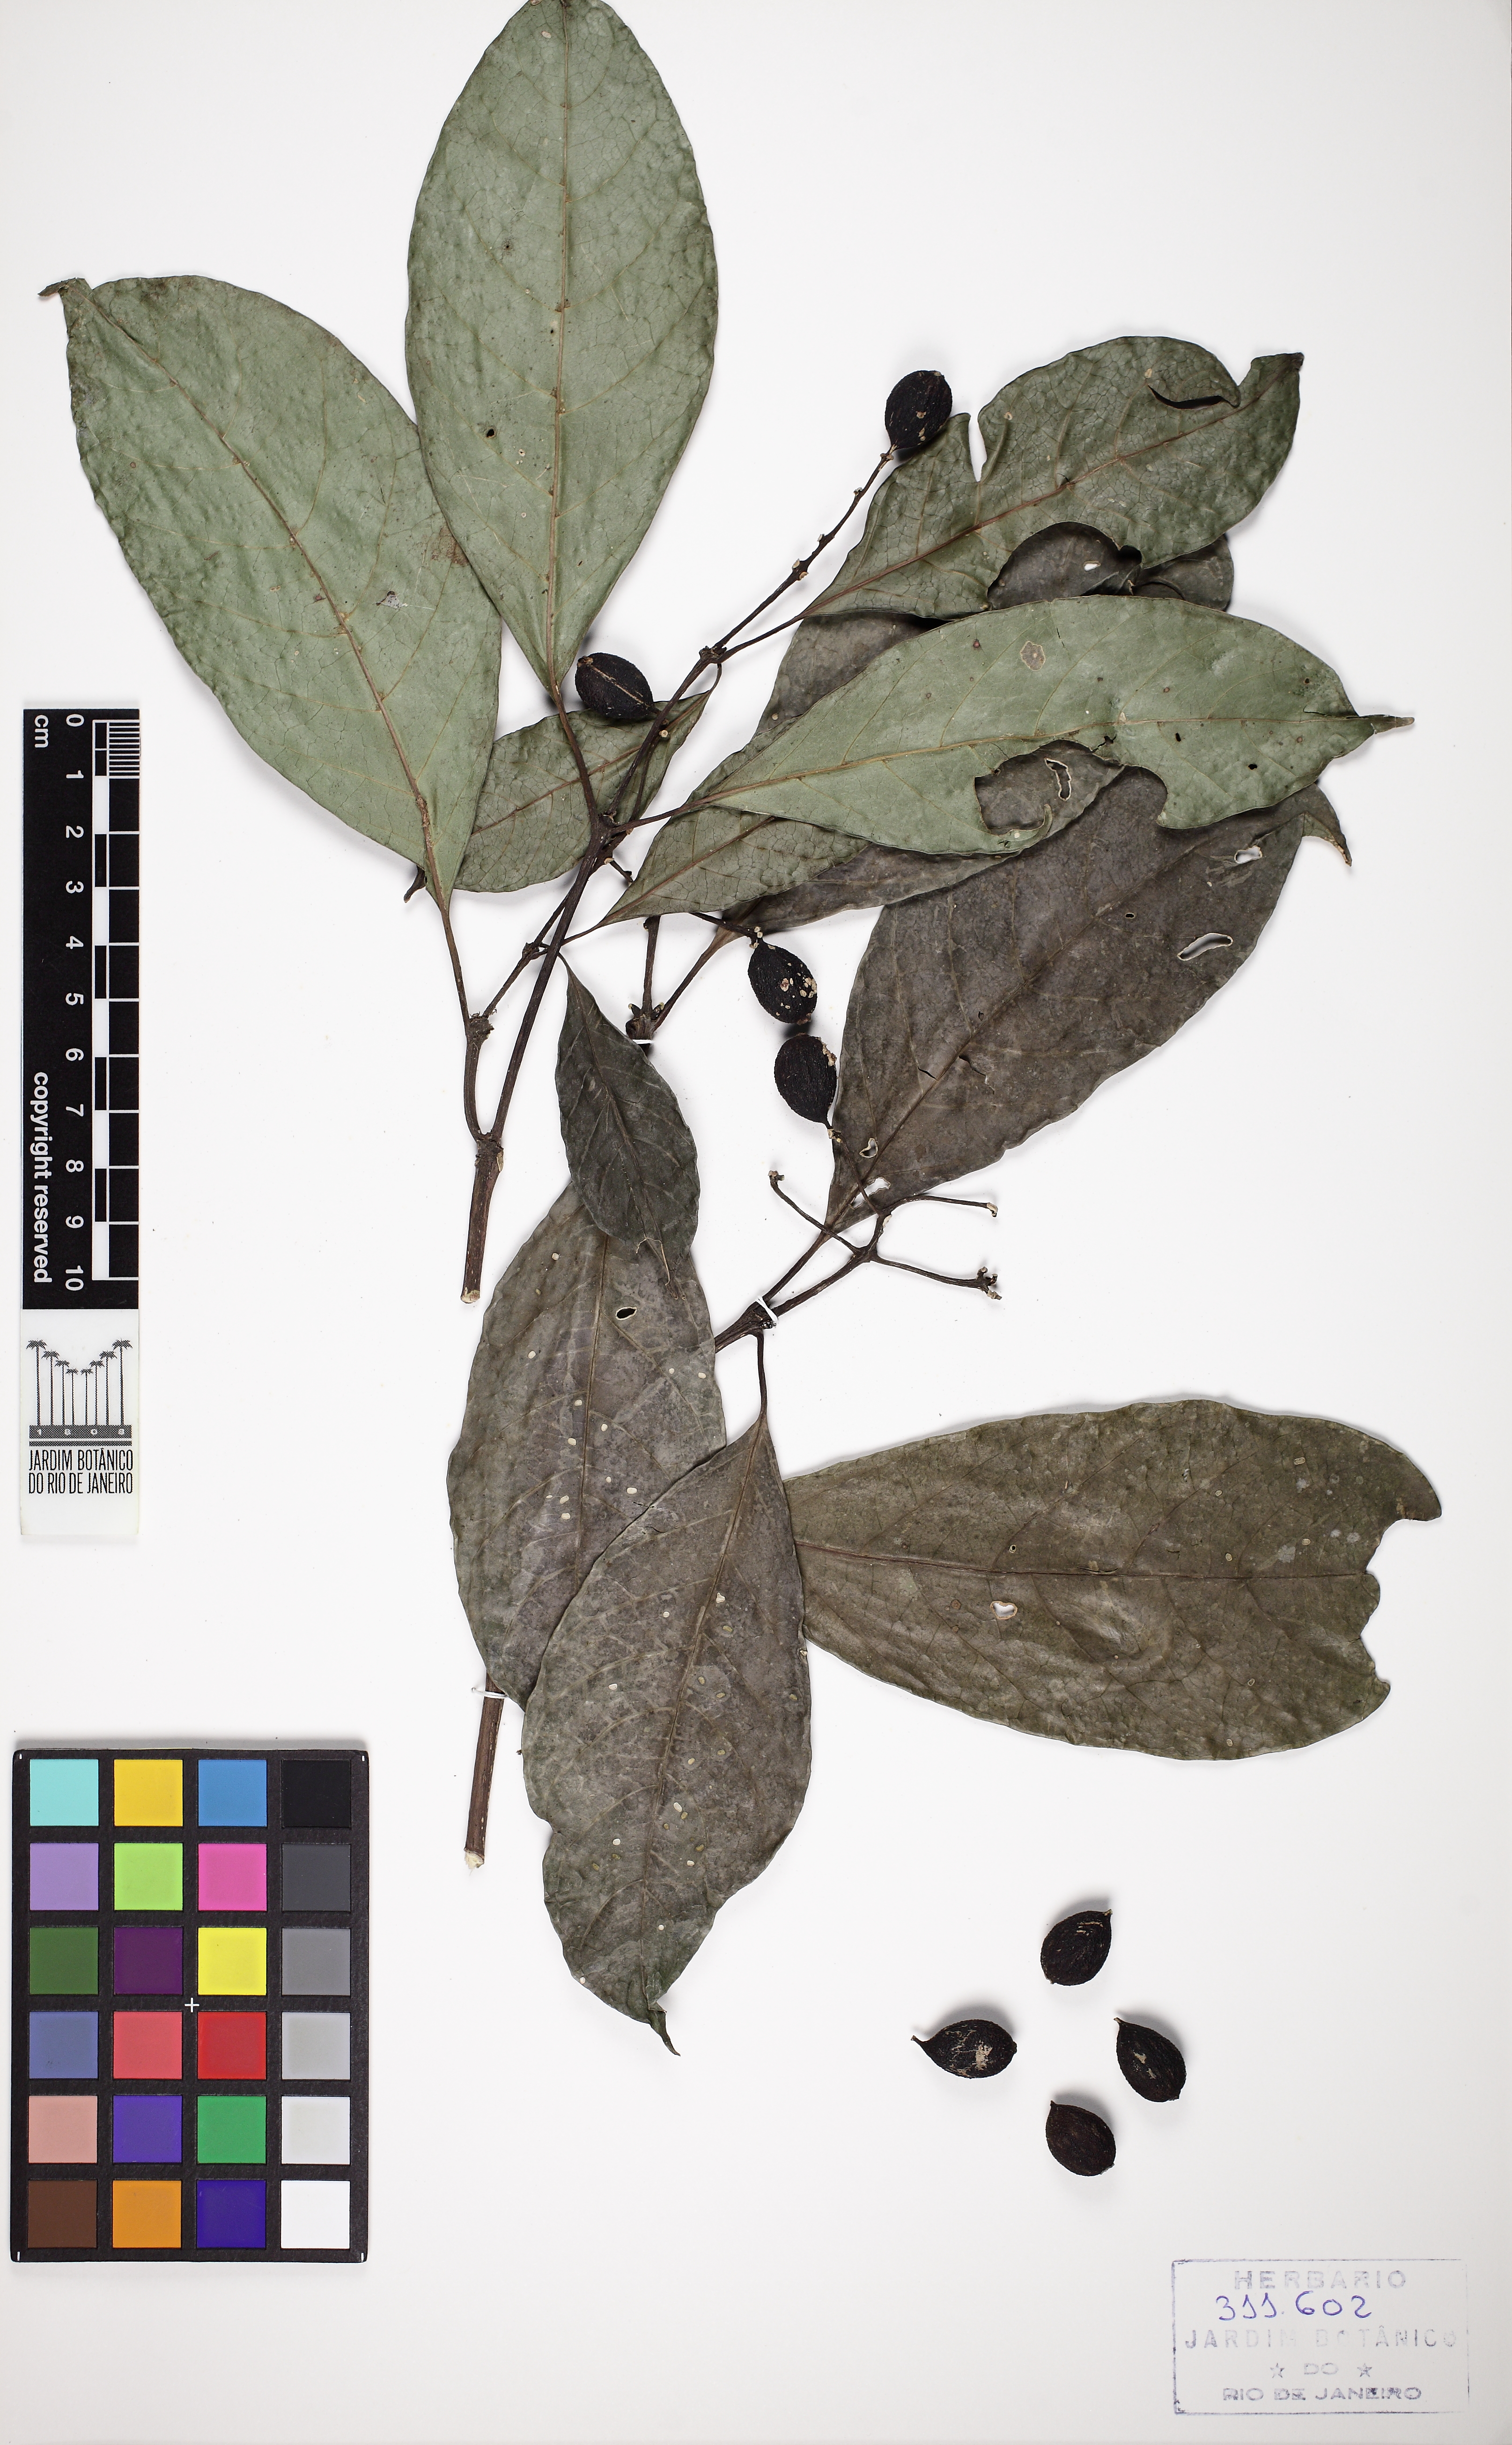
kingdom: Plantae
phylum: Tracheophyta
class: Magnoliopsida
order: Gentianales
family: Rubiaceae
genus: Coussarea
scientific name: Coussarea accedens
